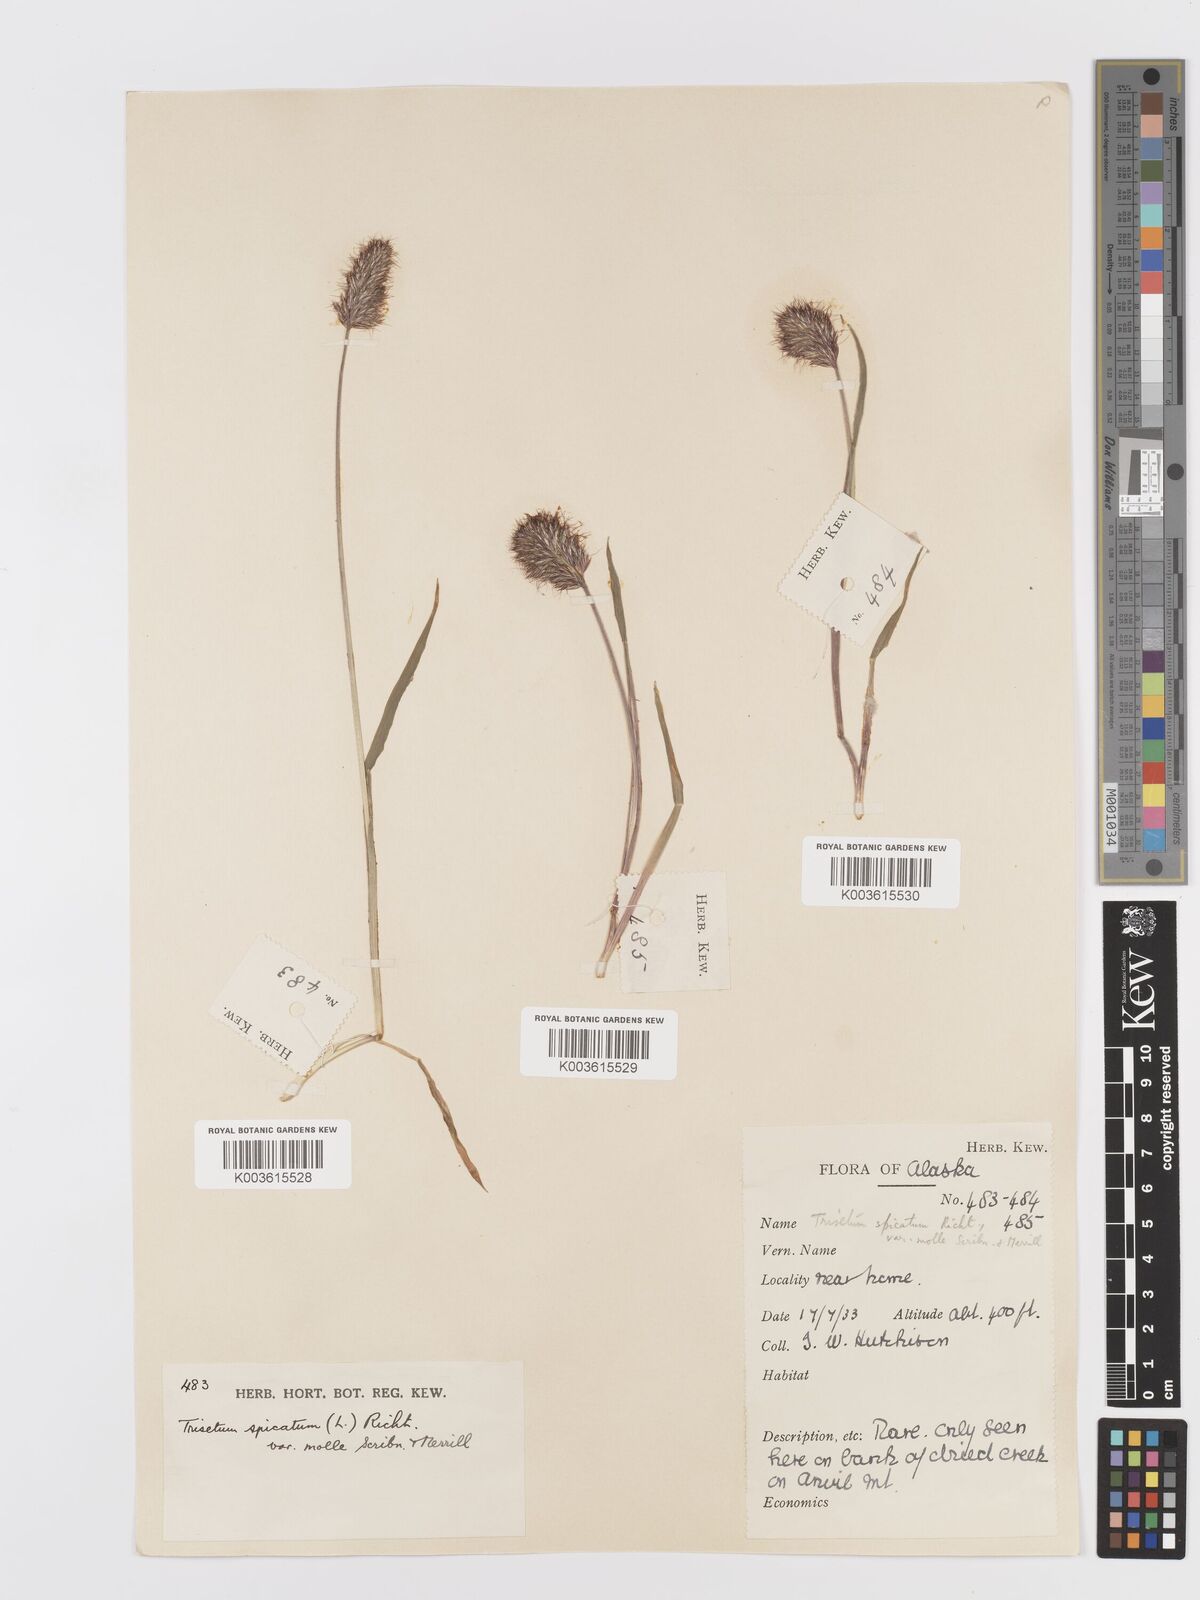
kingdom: Plantae
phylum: Tracheophyta
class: Liliopsida
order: Poales
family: Poaceae
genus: Koeleria
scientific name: Koeleria spicata
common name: Mountain trisetum
